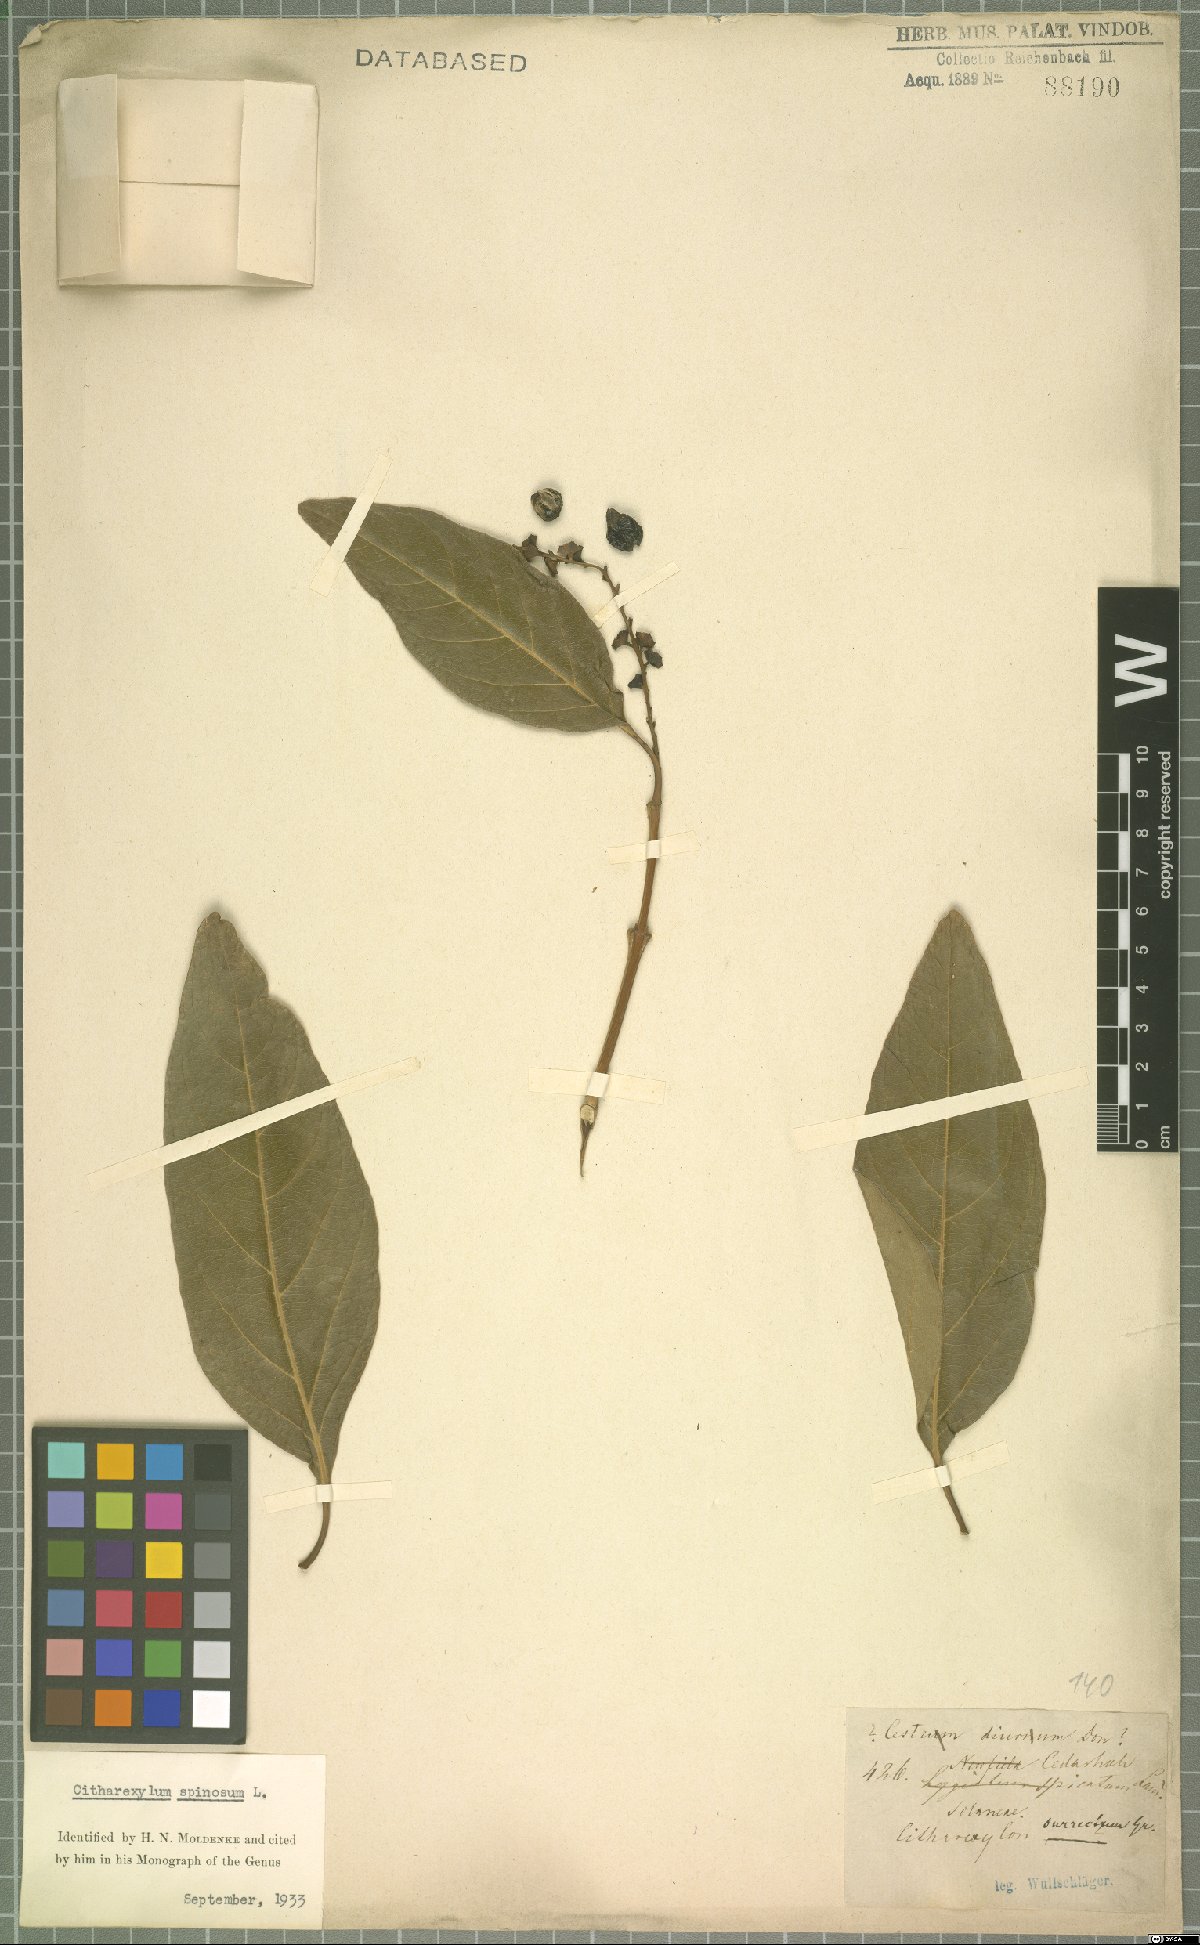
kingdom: Plantae
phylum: Tracheophyta
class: Magnoliopsida
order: Lamiales
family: Verbenaceae
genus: Citharexylum
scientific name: Citharexylum spinosum
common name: Fiddlewood
